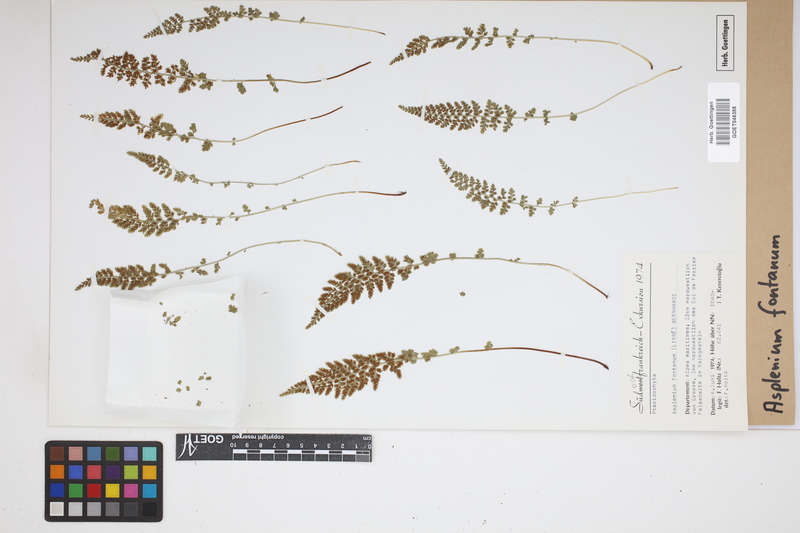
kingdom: Plantae
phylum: Tracheophyta
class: Polypodiopsida
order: Polypodiales
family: Aspleniaceae
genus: Asplenium
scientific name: Asplenium fontanum
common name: Fountain spleenwort
